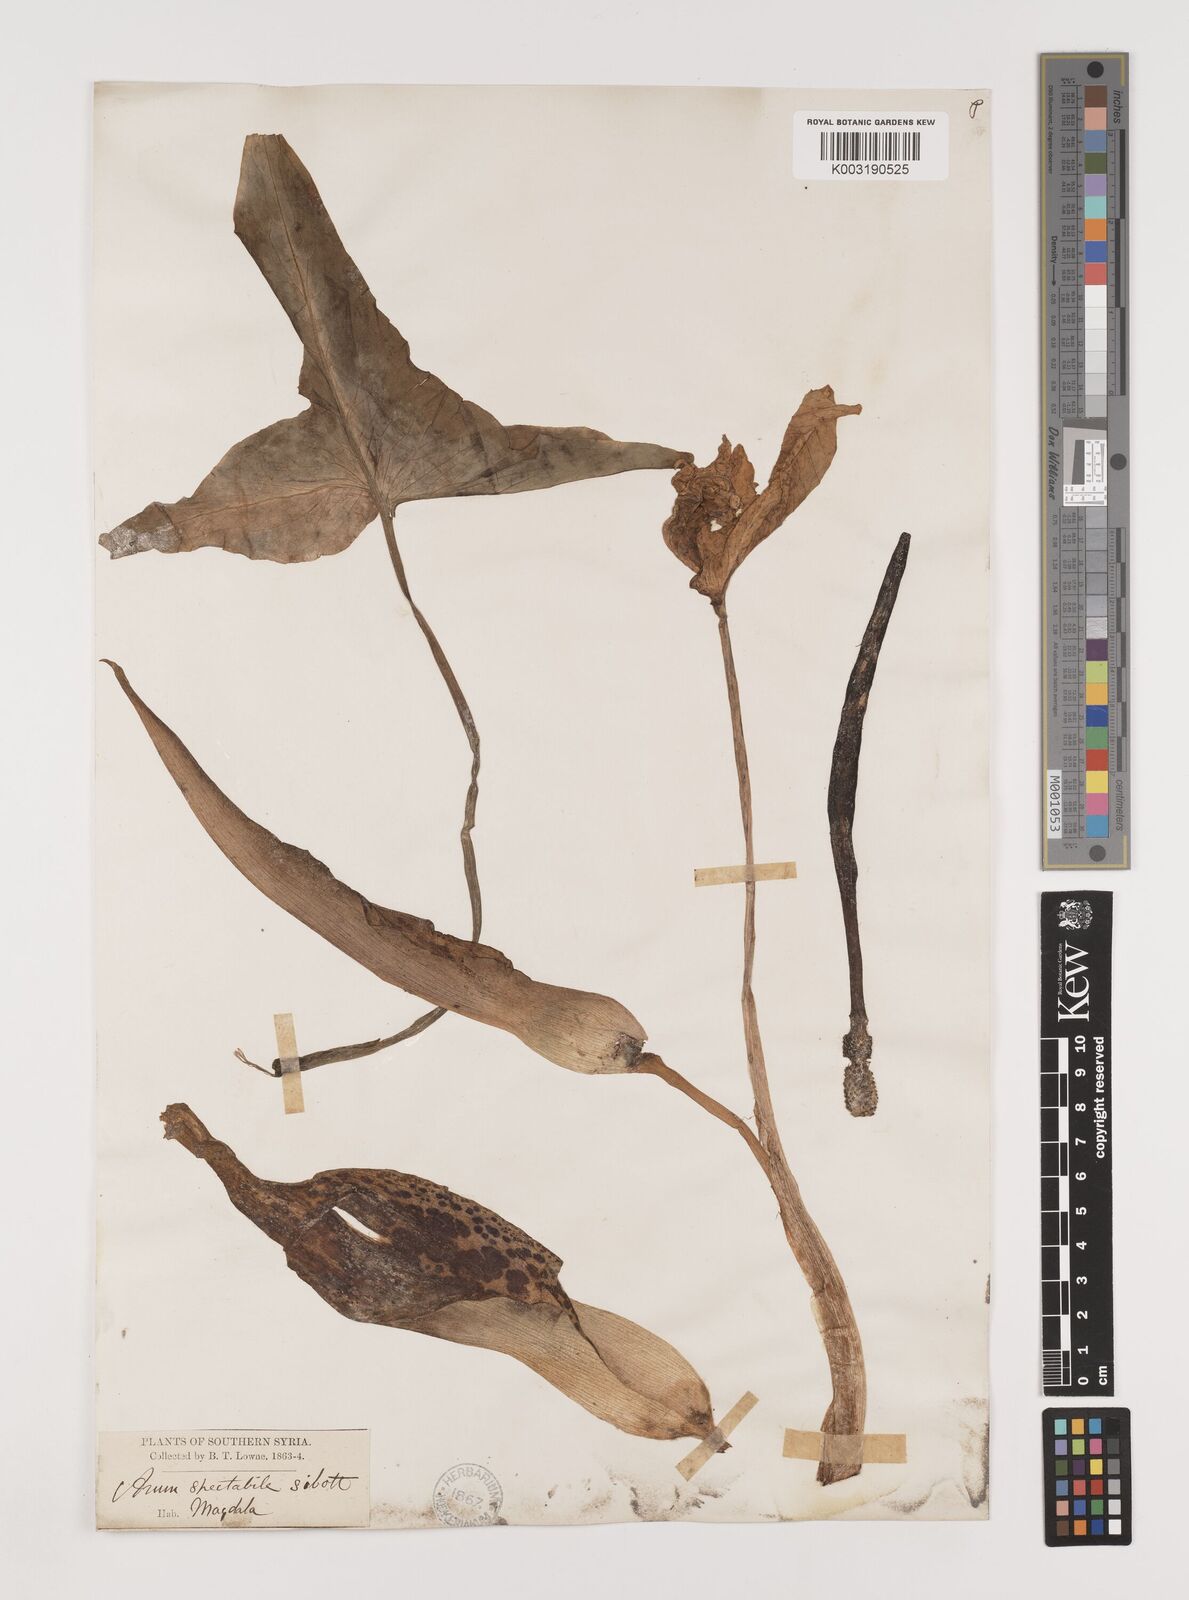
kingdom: Plantae
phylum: Tracheophyta
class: Liliopsida
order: Alismatales
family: Araceae
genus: Arum
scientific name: Arum dioscoridis
